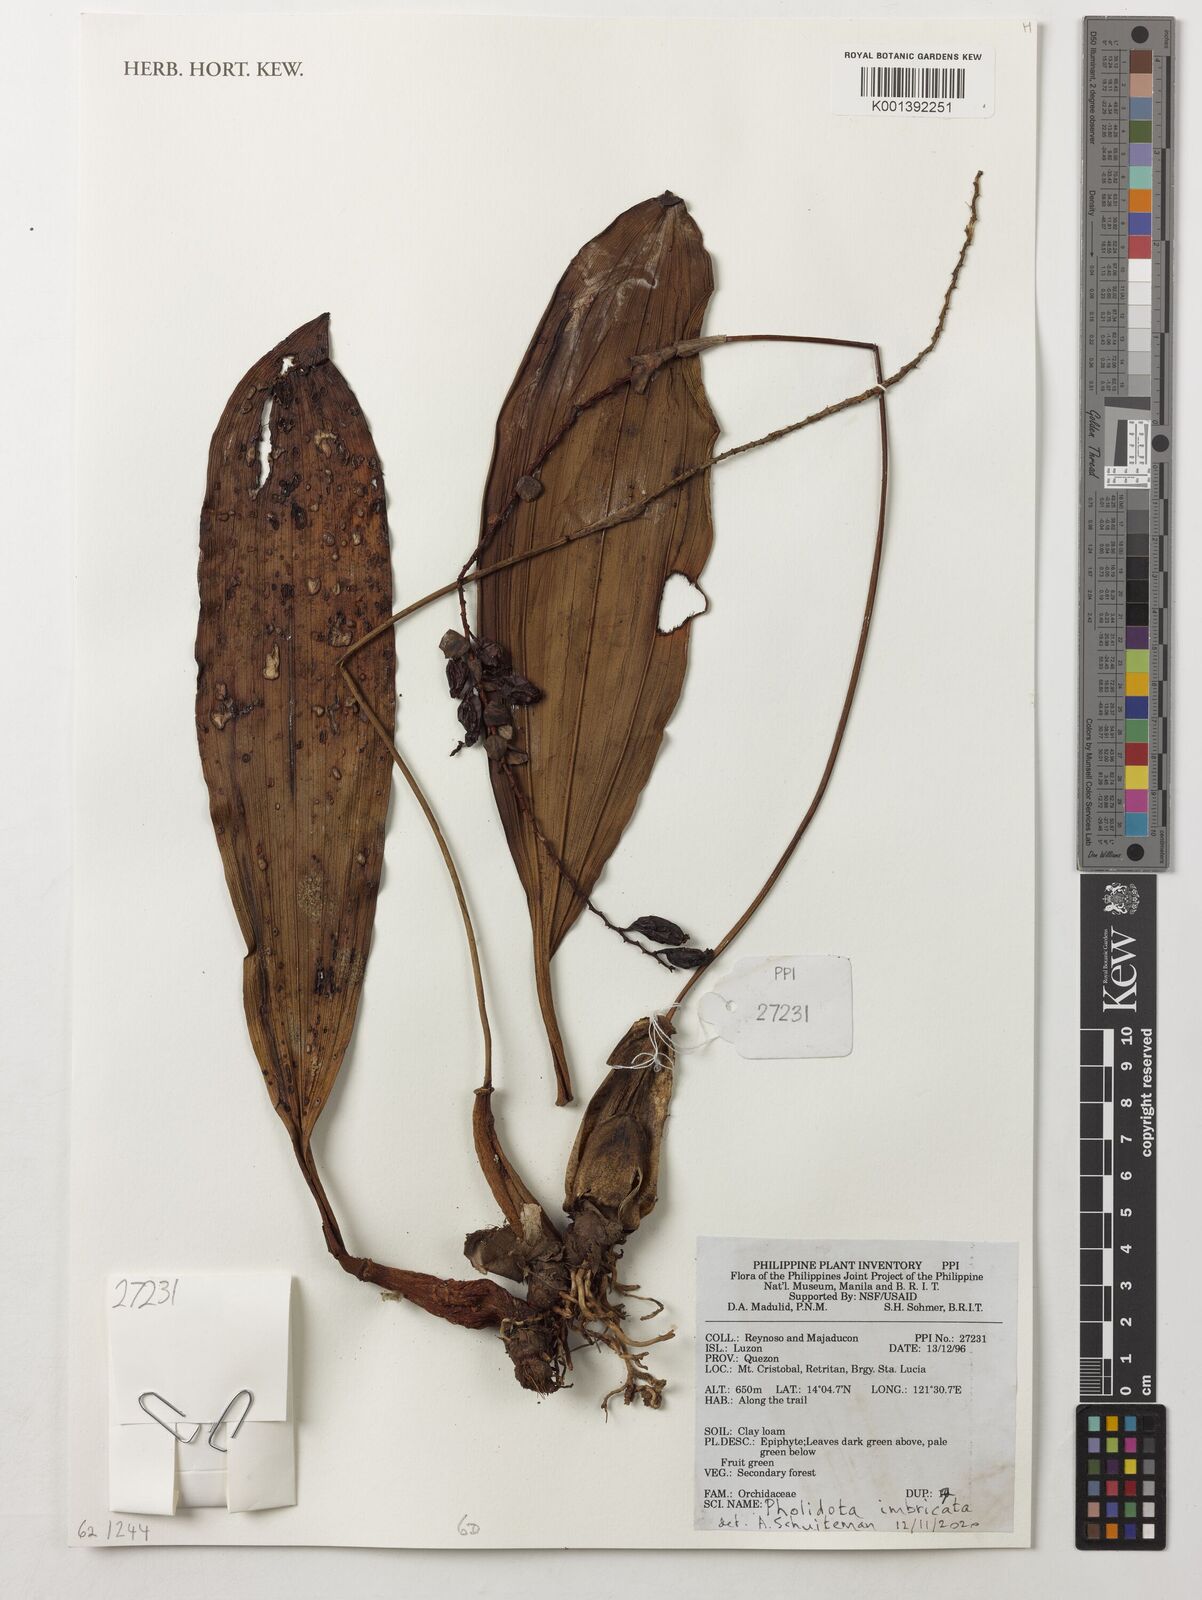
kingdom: Plantae
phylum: Tracheophyta
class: Liliopsida
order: Asparagales
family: Orchidaceae
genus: Coelogyne
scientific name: Coelogyne imbricata
